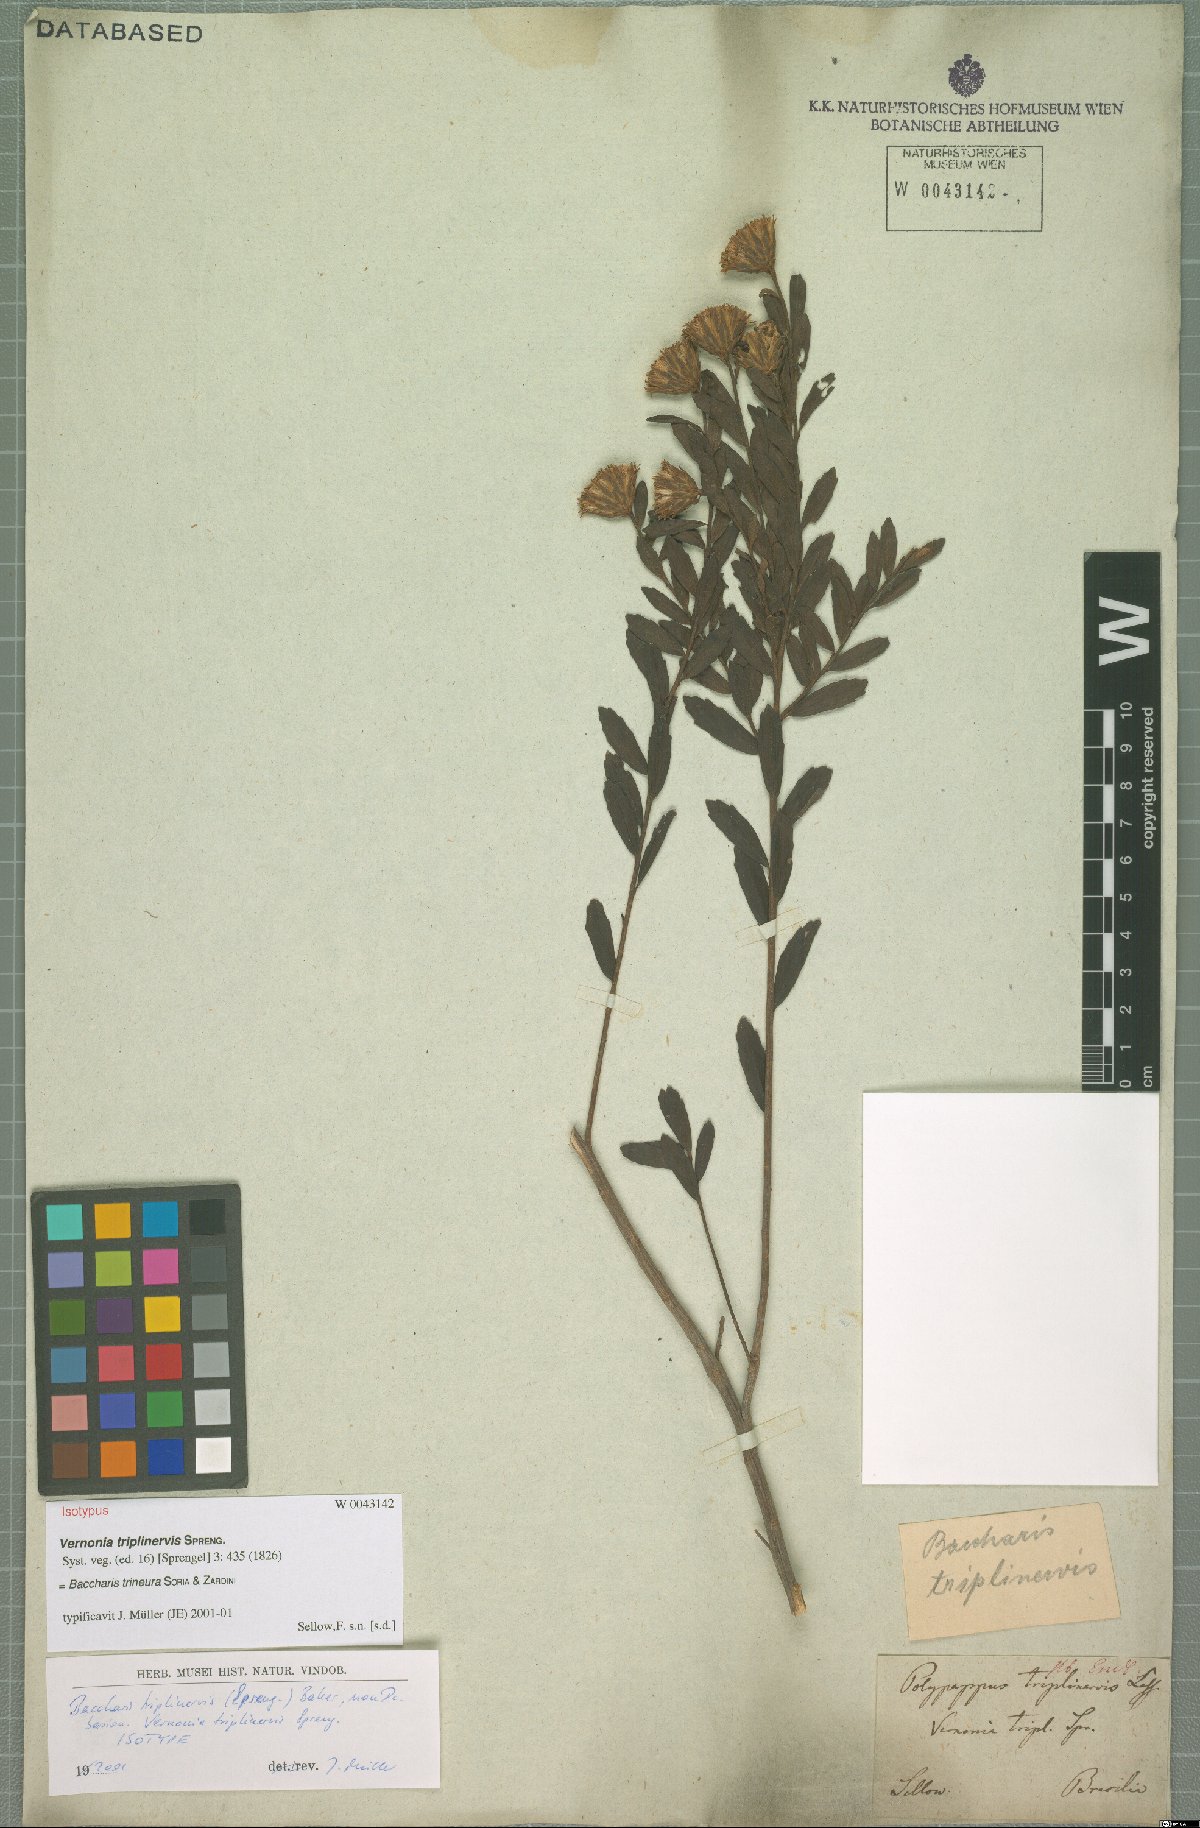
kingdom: Plantae
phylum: Tracheophyta
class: Magnoliopsida
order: Asterales
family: Asteraceae
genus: Baccharis
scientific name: Baccharis trineura
